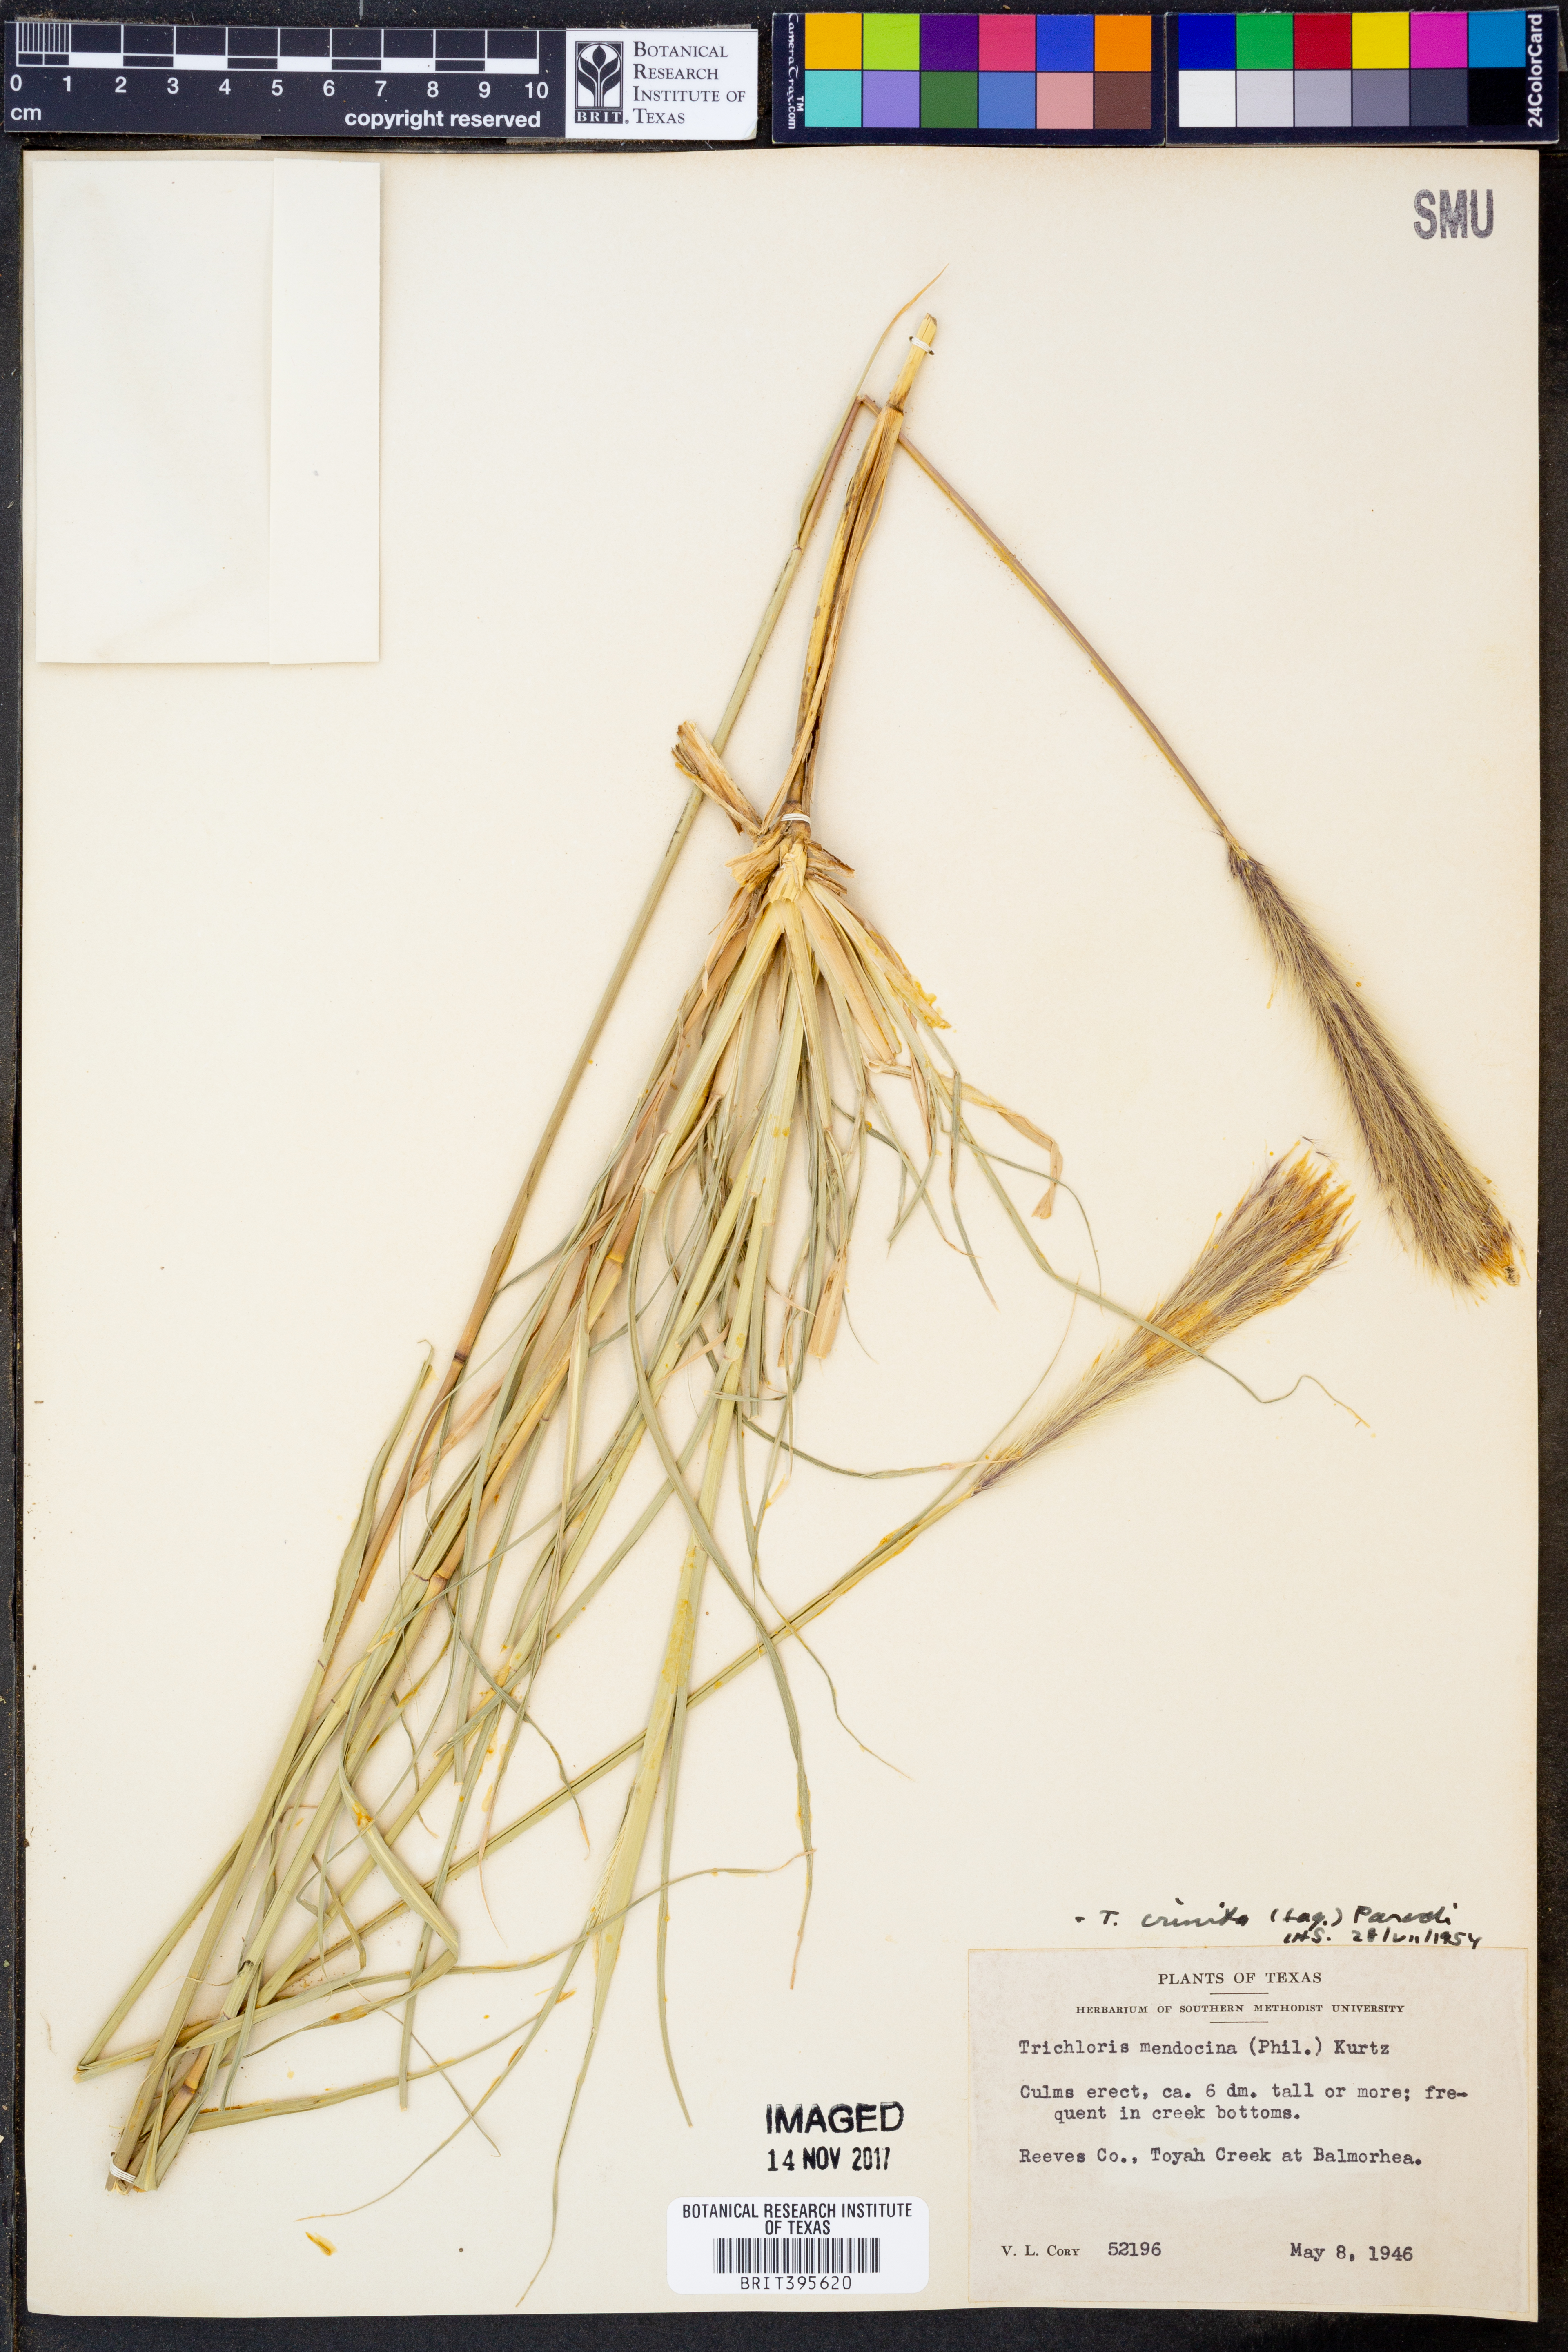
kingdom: Plantae
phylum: Tracheophyta
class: Liliopsida
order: Poales
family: Poaceae
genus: Leptochloa
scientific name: Leptochloa crinita
